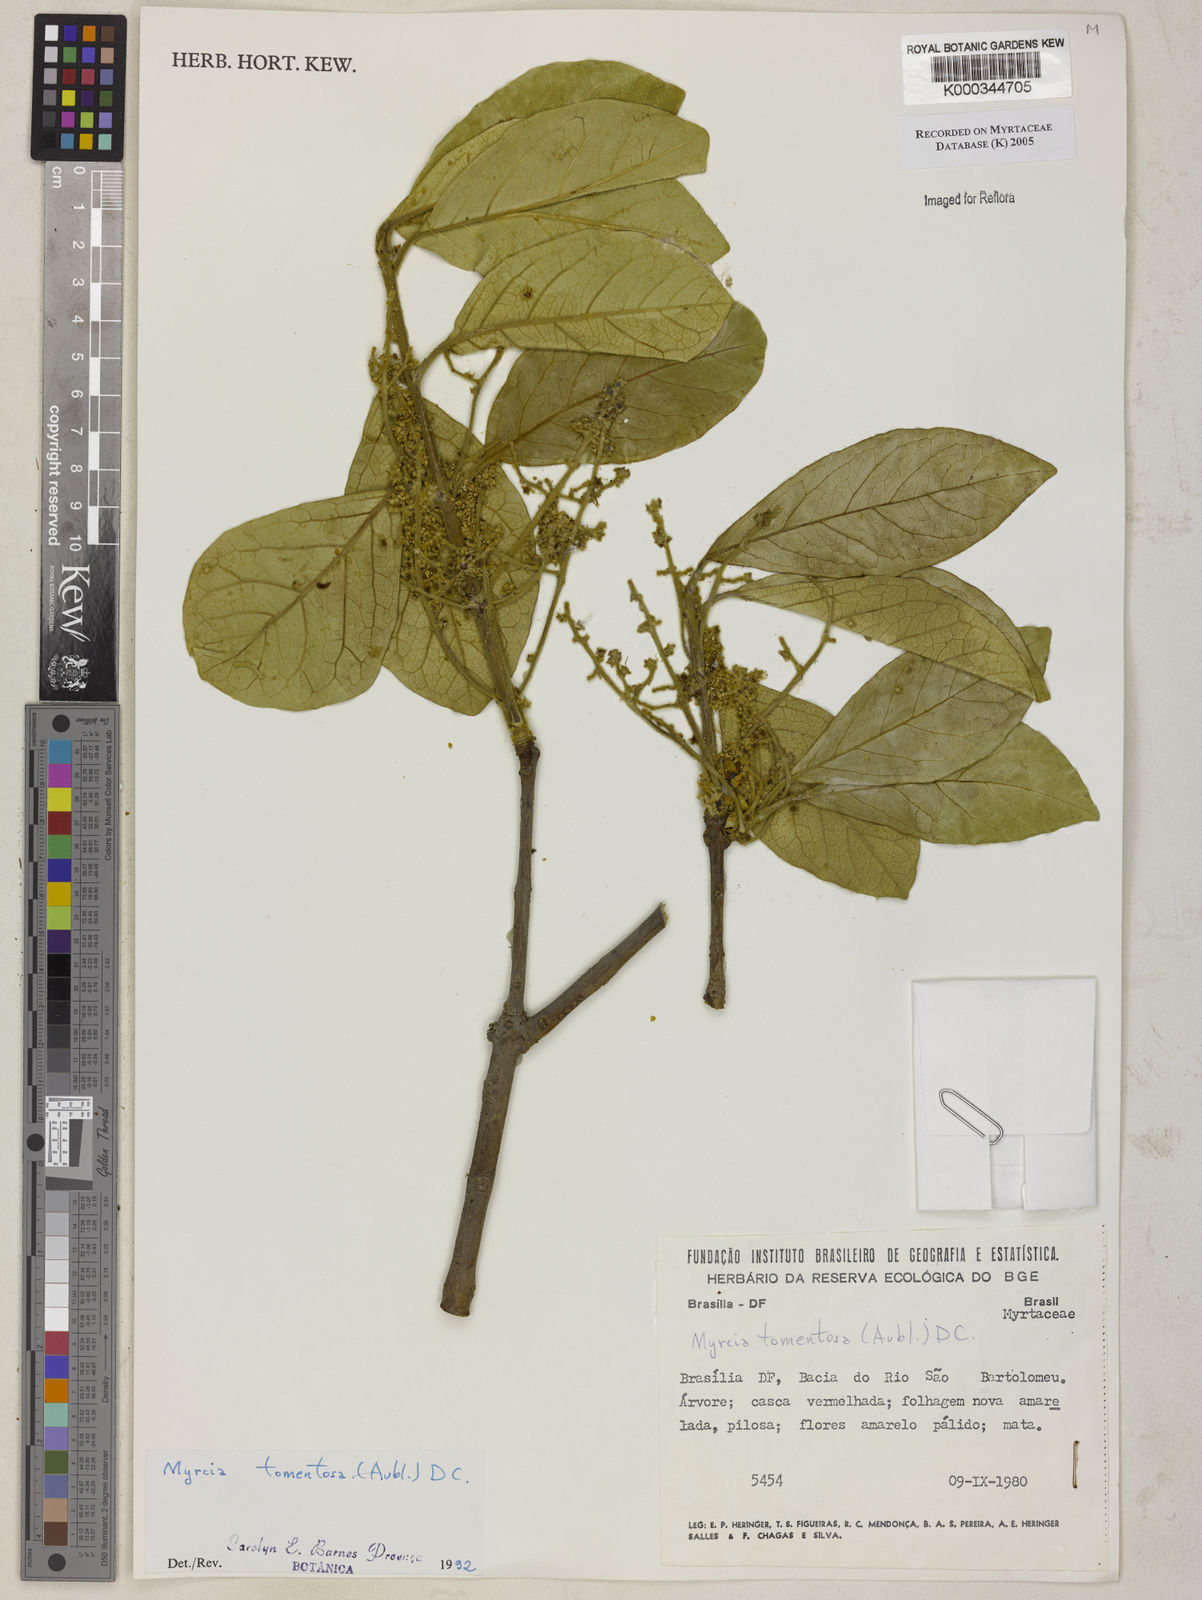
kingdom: Plantae
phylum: Tracheophyta
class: Magnoliopsida
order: Myrtales
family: Myrtaceae
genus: Myrcia
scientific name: Myrcia tomentosa
